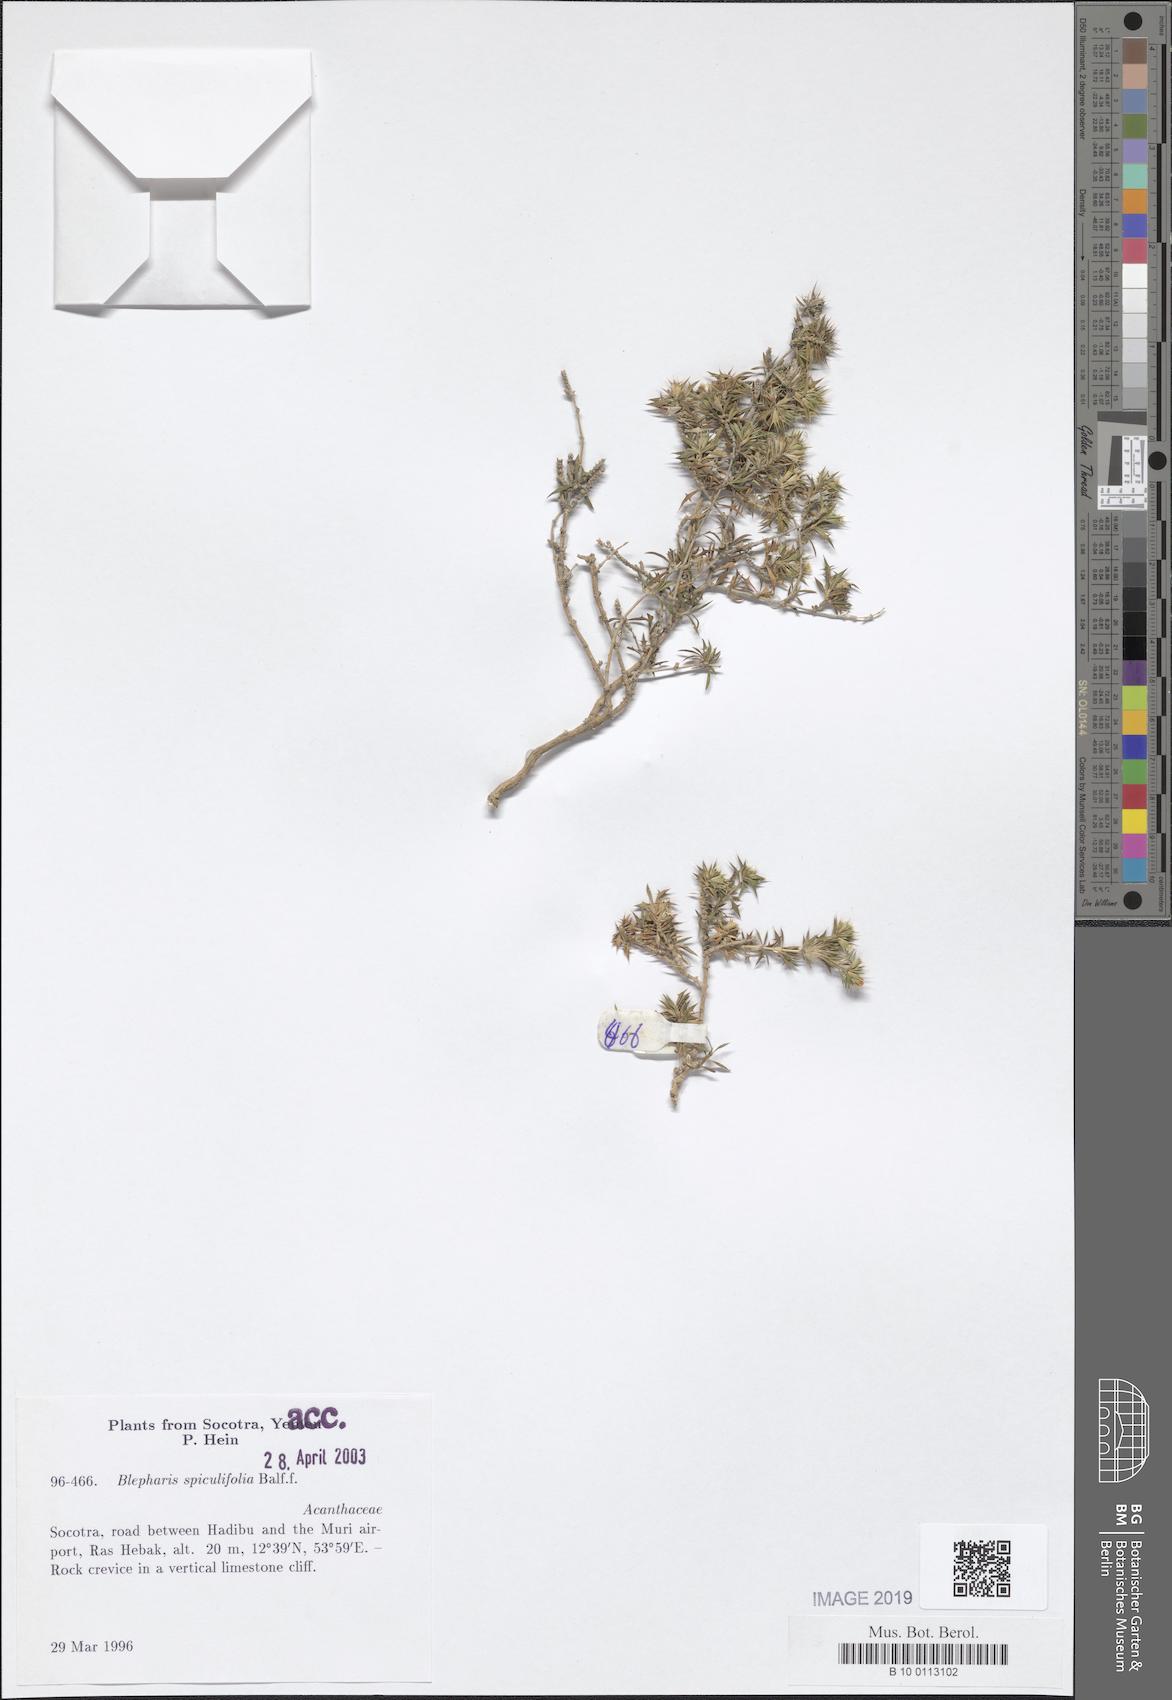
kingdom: Plantae
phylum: Tracheophyta
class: Magnoliopsida
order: Lamiales
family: Acanthaceae
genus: Blepharis
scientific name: Blepharis spiculifolia
